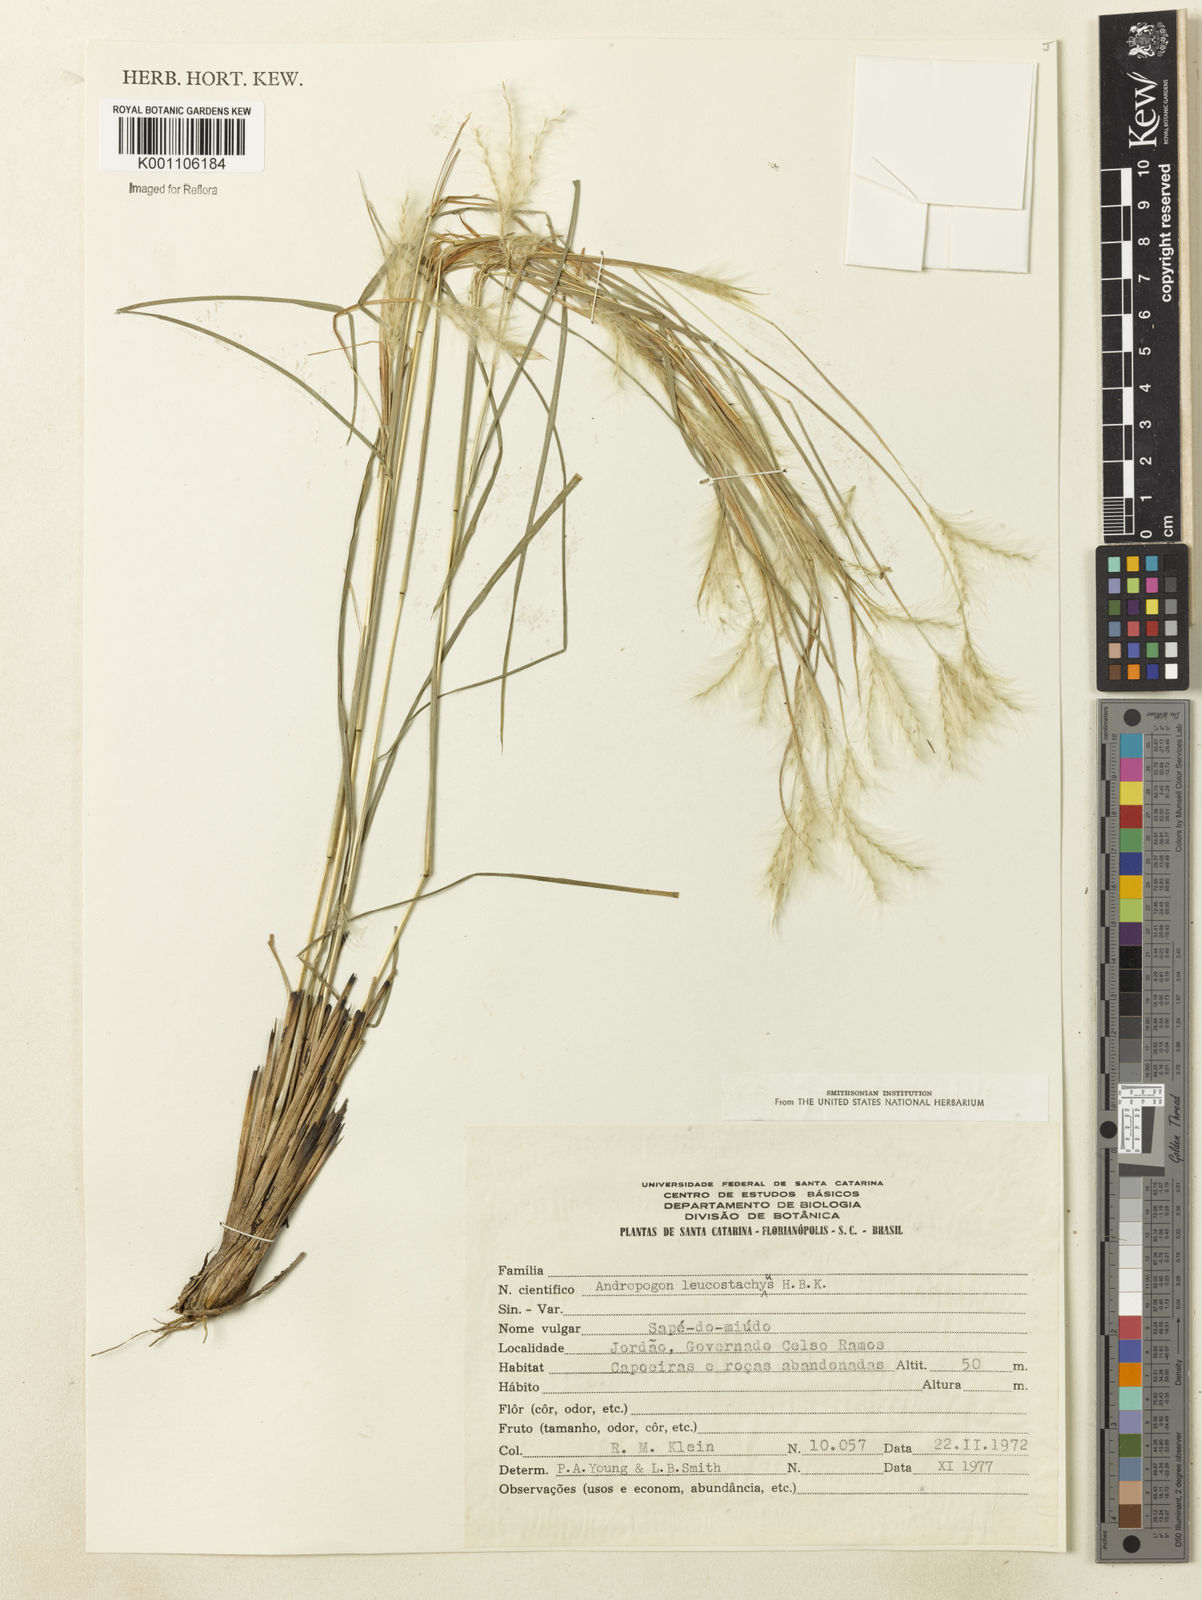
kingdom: Plantae
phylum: Tracheophyta
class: Liliopsida
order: Poales
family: Poaceae
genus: Andropogon
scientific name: Andropogon leucostachyus
